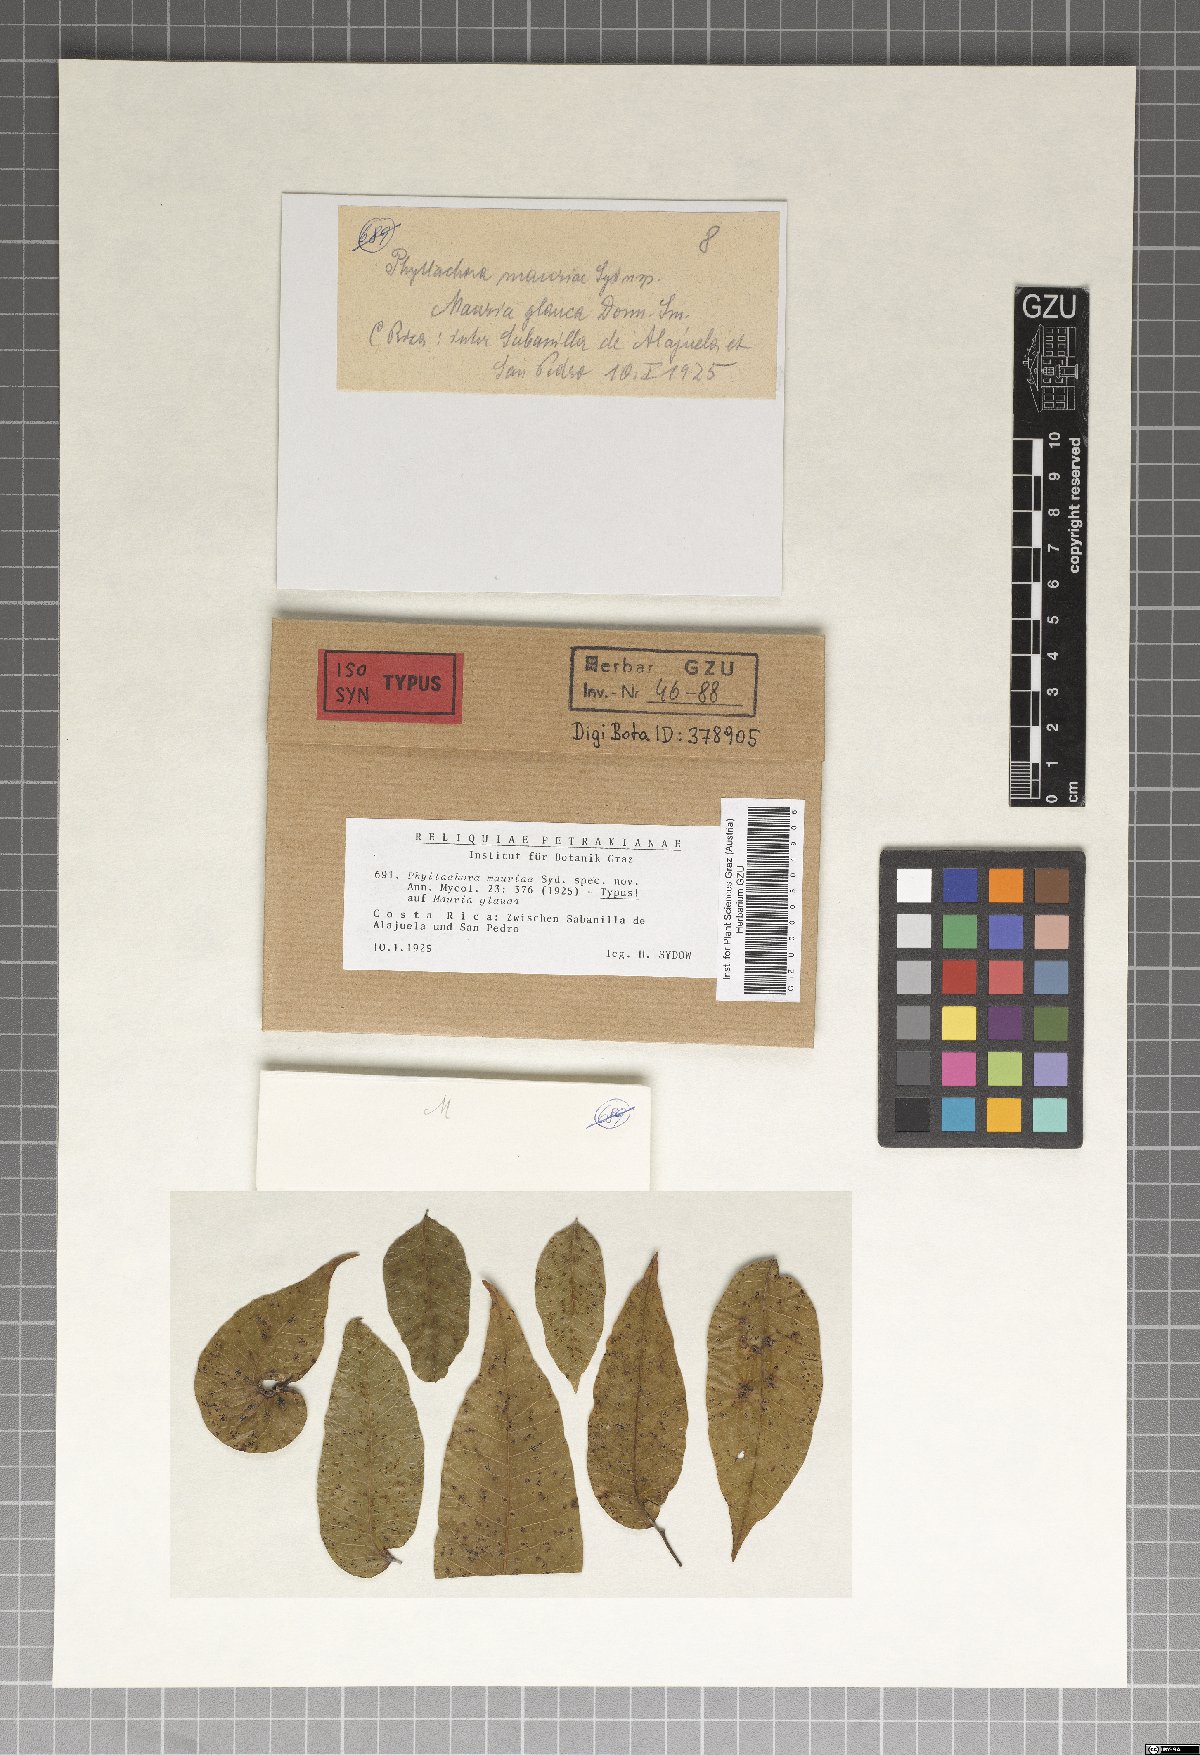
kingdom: Fungi
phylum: Ascomycota
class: Sordariomycetes
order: Phyllachorales
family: Phyllachoraceae
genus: Phyllachora
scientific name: Phyllachora mauriae
